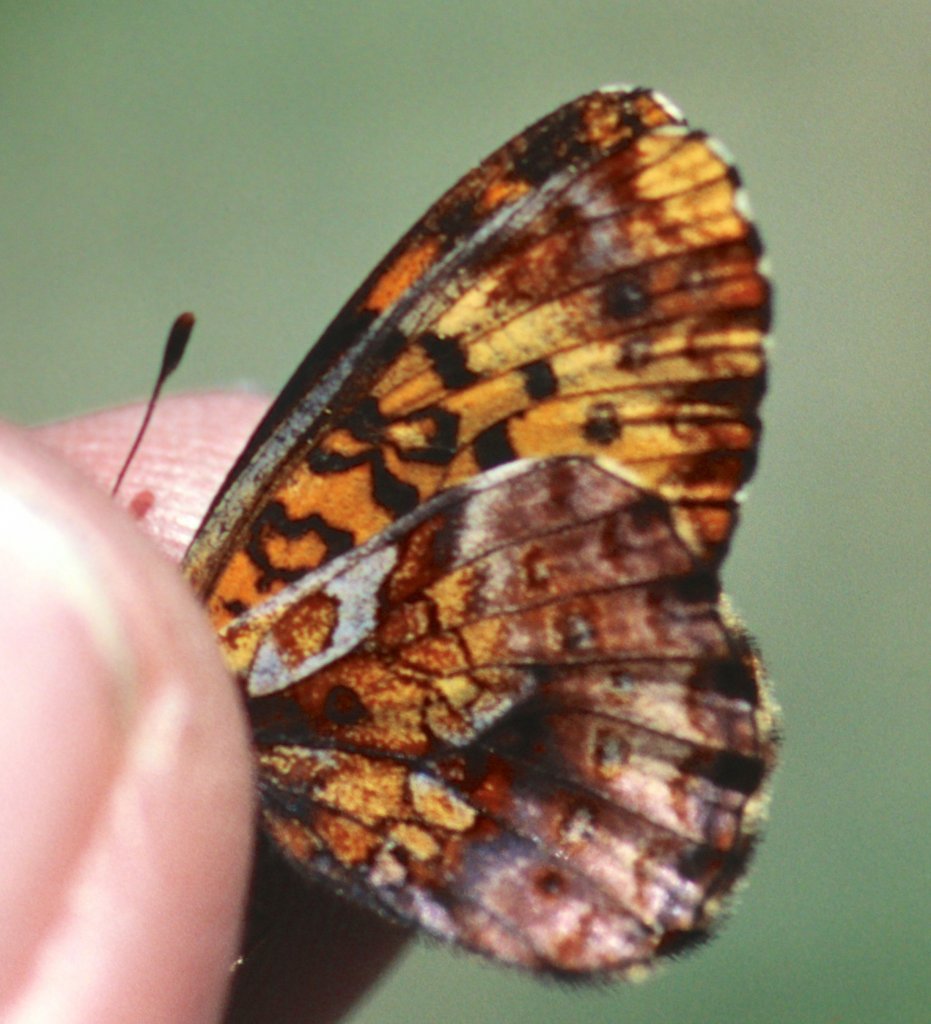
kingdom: Animalia
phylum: Arthropoda
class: Insecta
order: Lepidoptera
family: Nymphalidae
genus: Clossiana
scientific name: Clossiana toddi
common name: Meadow Fritillary
